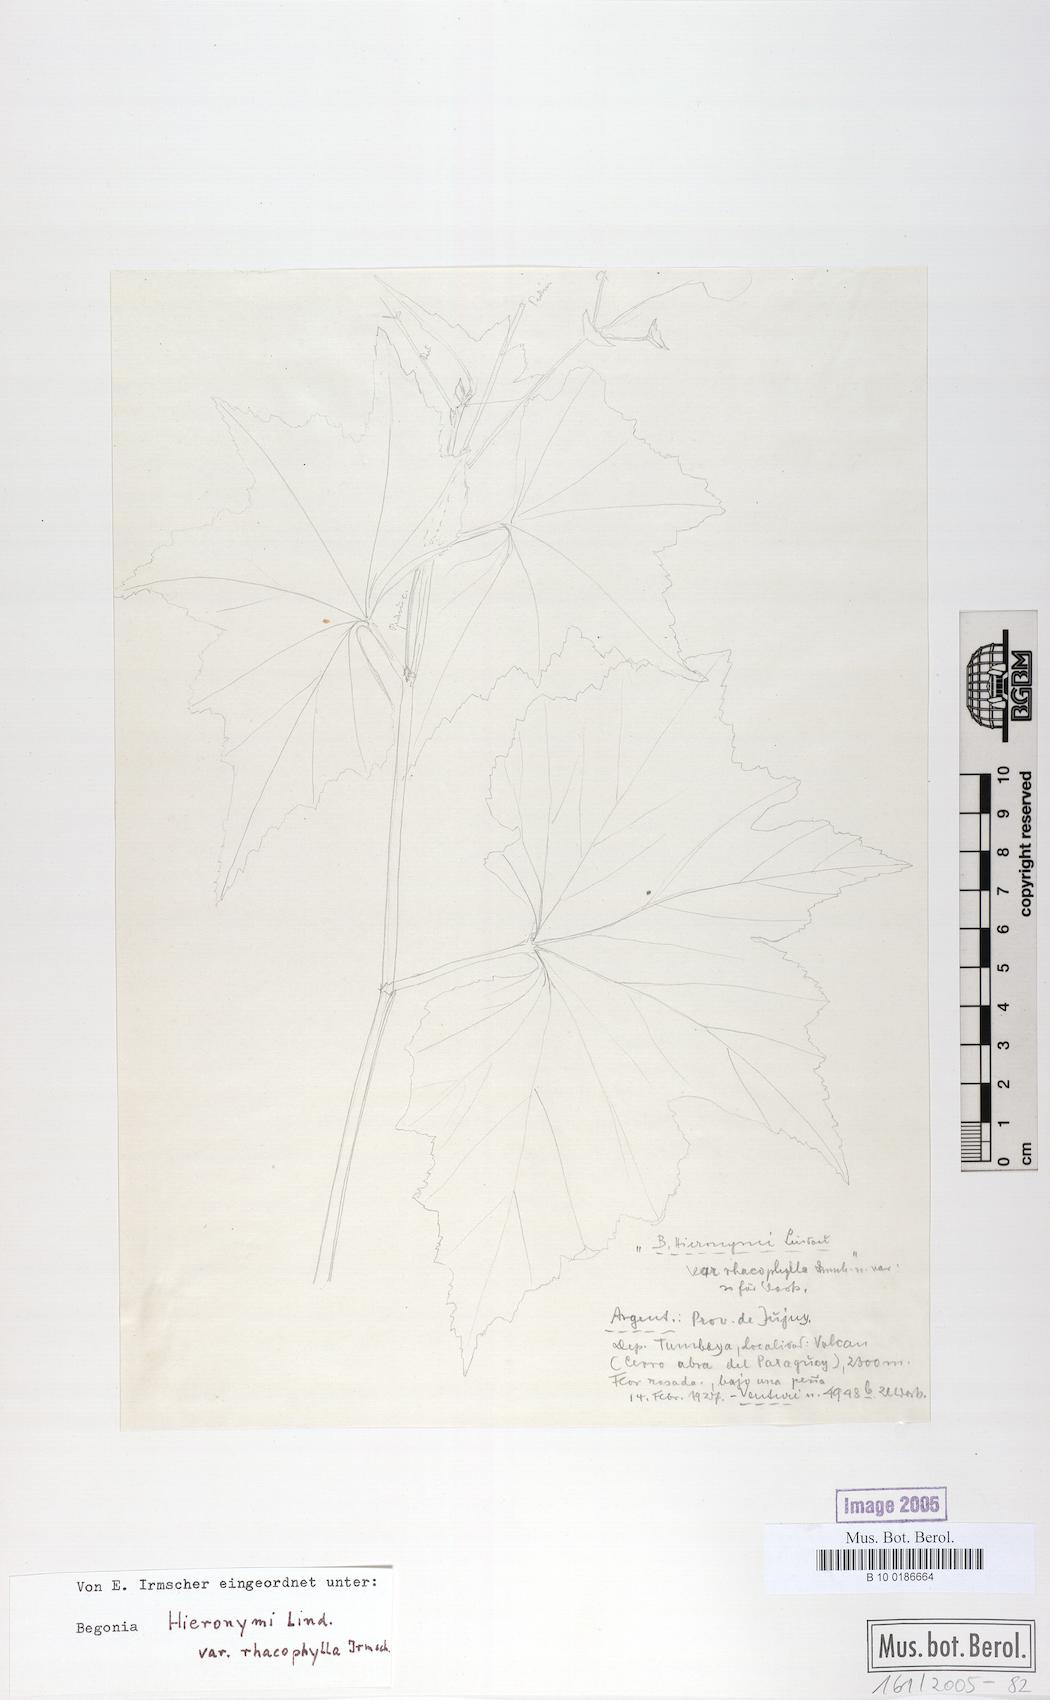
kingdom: Plantae
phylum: Tracheophyta
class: Magnoliopsida
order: Cucurbitales
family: Begoniaceae
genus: Begonia
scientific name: Begonia micranthera
